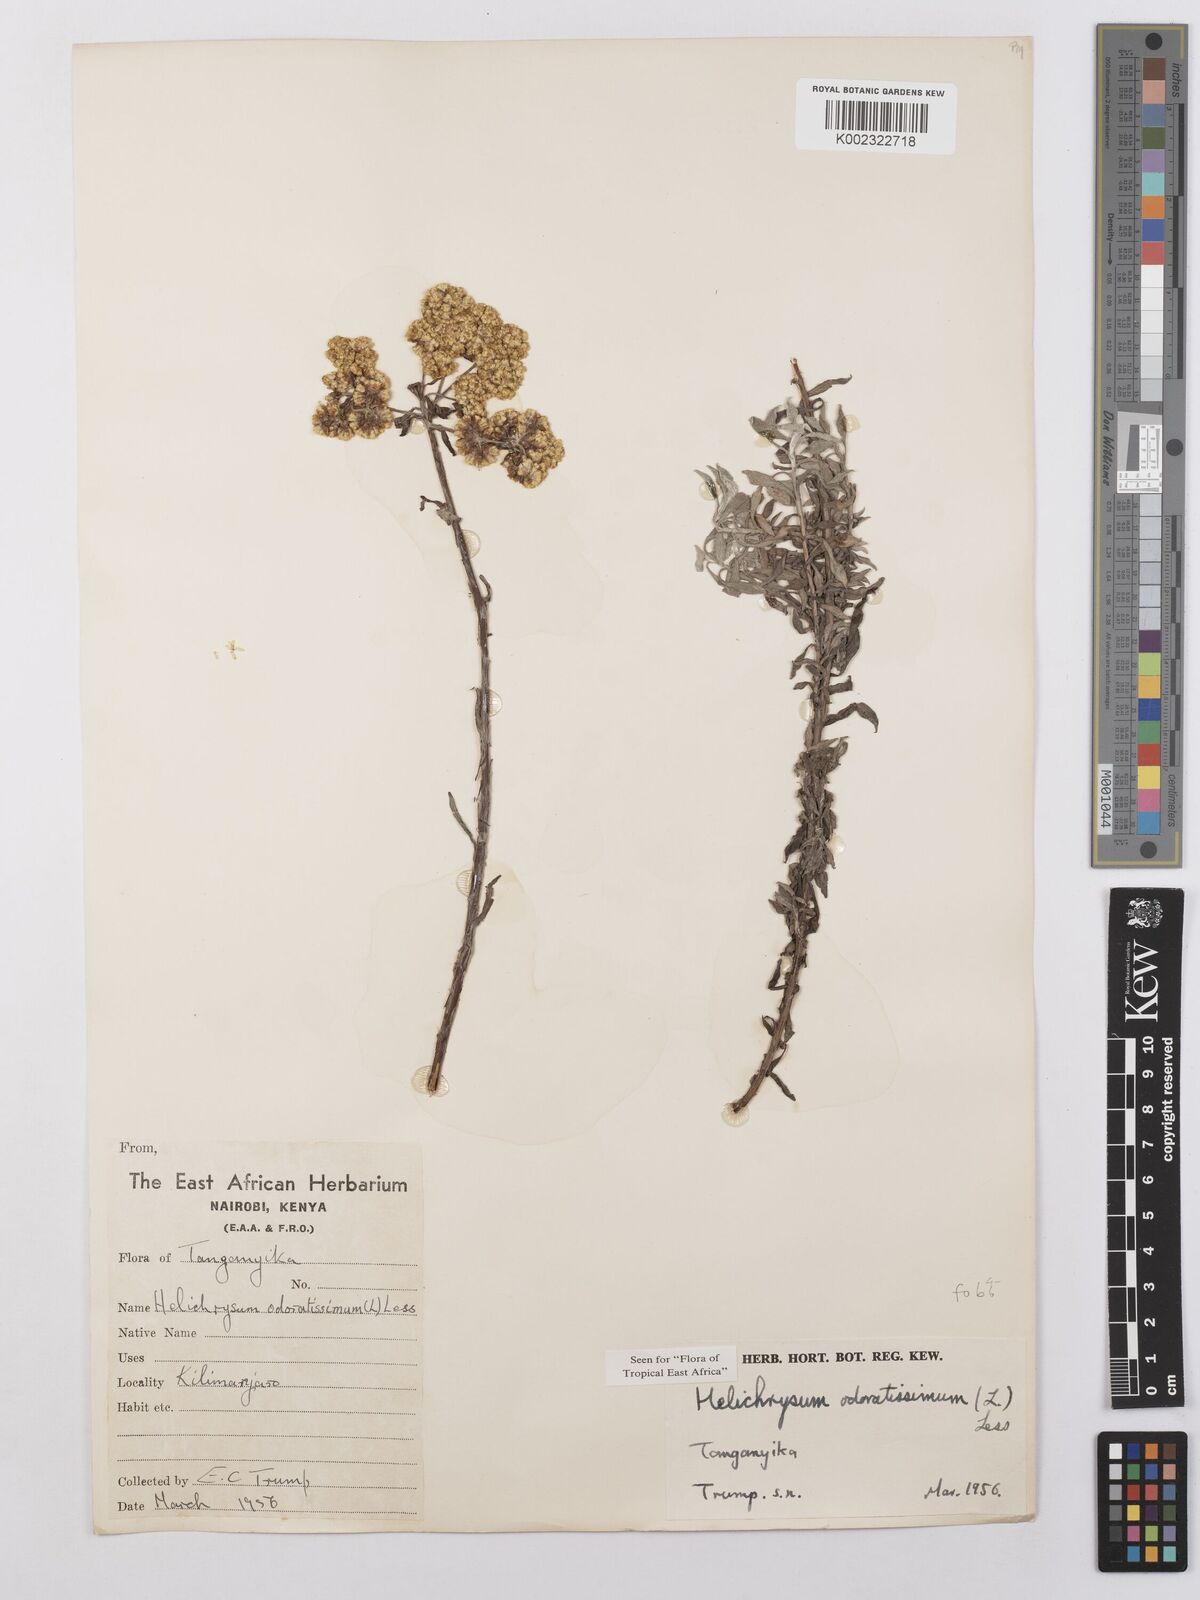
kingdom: Plantae
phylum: Tracheophyta
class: Magnoliopsida
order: Asterales
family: Asteraceae
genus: Helichrysum
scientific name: Helichrysum odoratissimum
